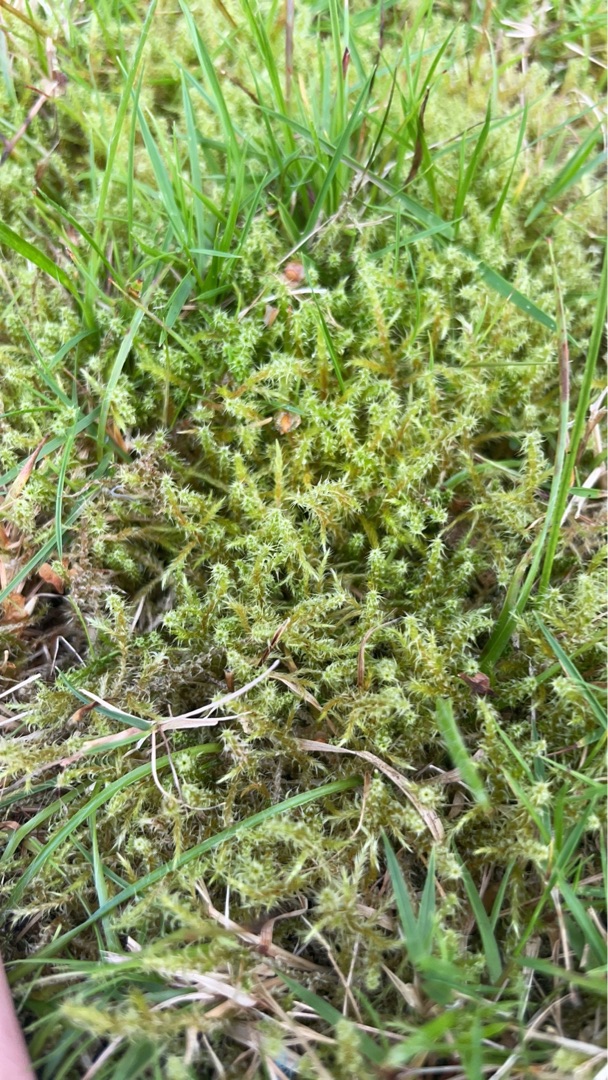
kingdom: Plantae
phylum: Bryophyta
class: Bryopsida
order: Hypnales
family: Hylocomiaceae
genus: Rhytidiadelphus
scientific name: Rhytidiadelphus squarrosus
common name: Plæne-kransemos
